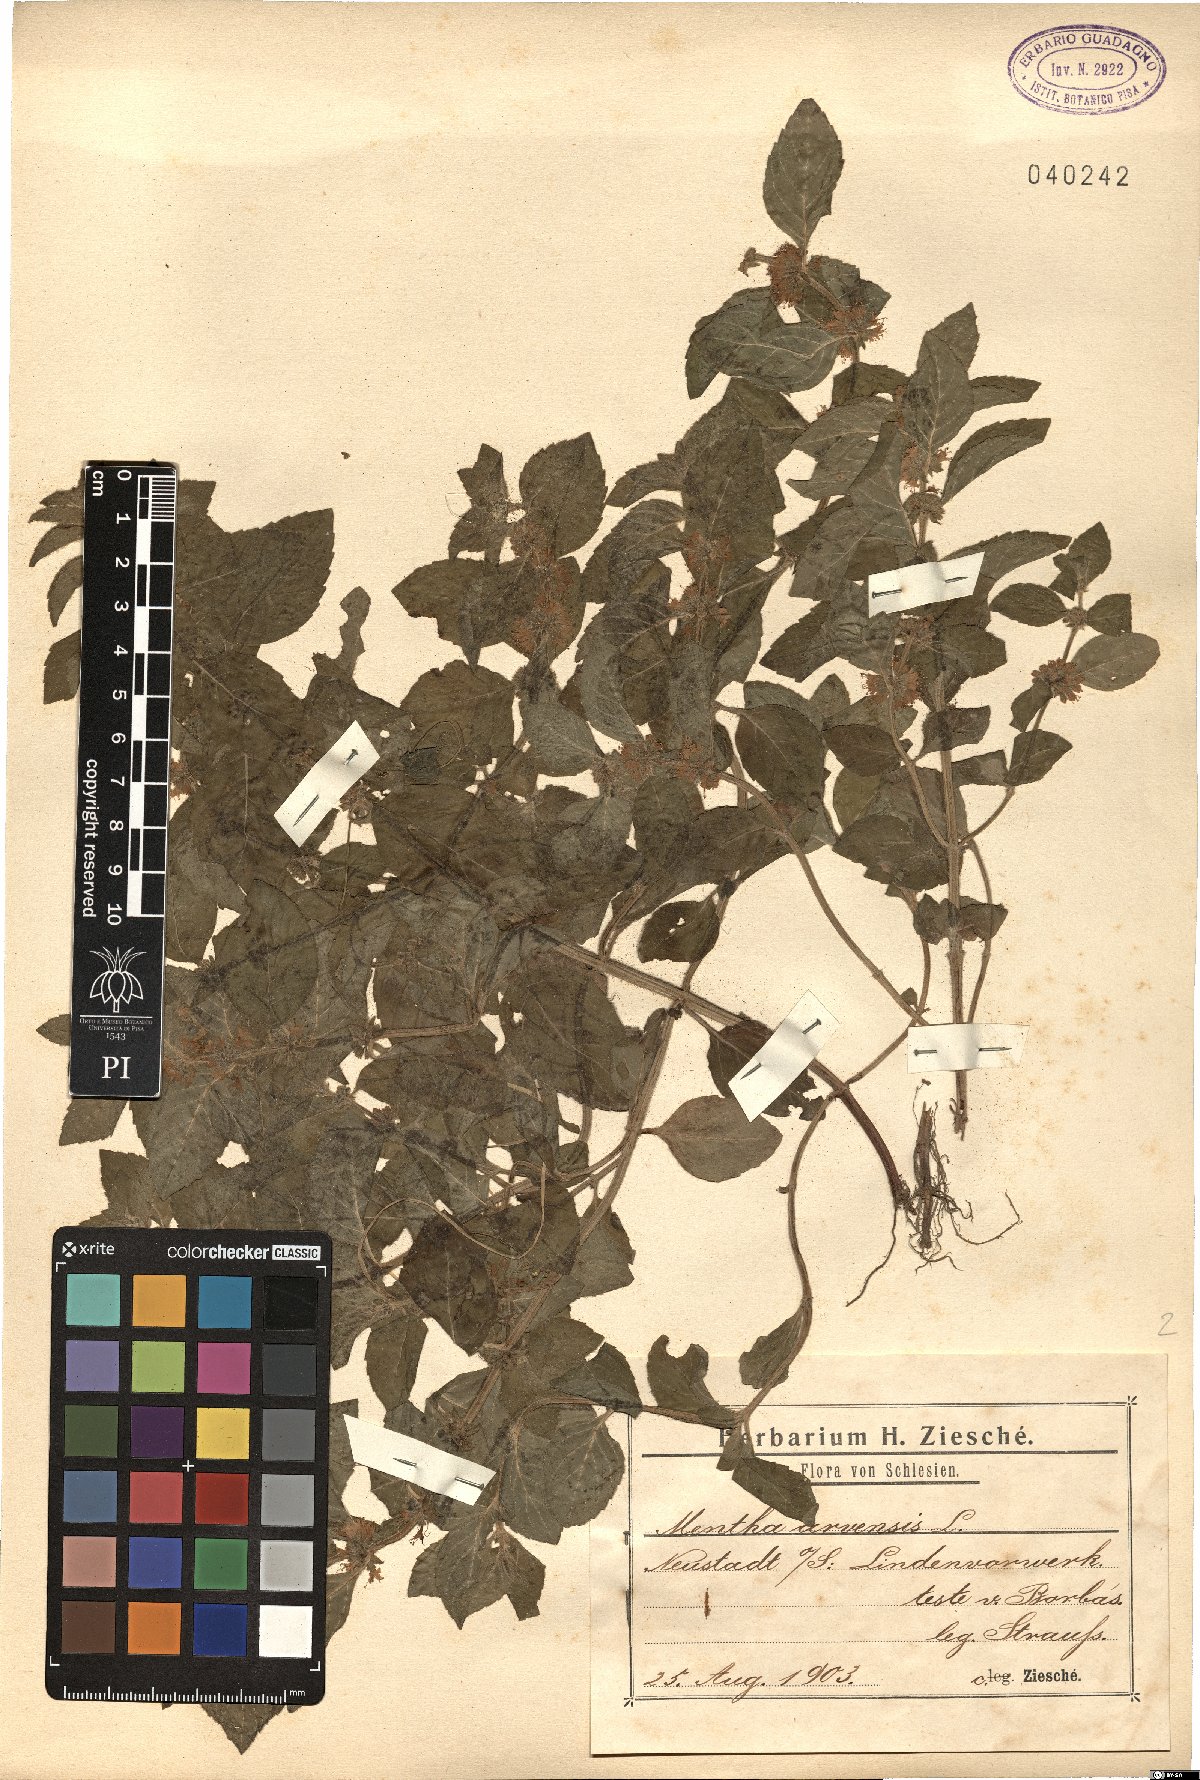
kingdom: Plantae
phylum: Tracheophyta
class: Magnoliopsida
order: Lamiales
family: Lamiaceae
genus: Mentha
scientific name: Mentha arvensis
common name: Corn mint
